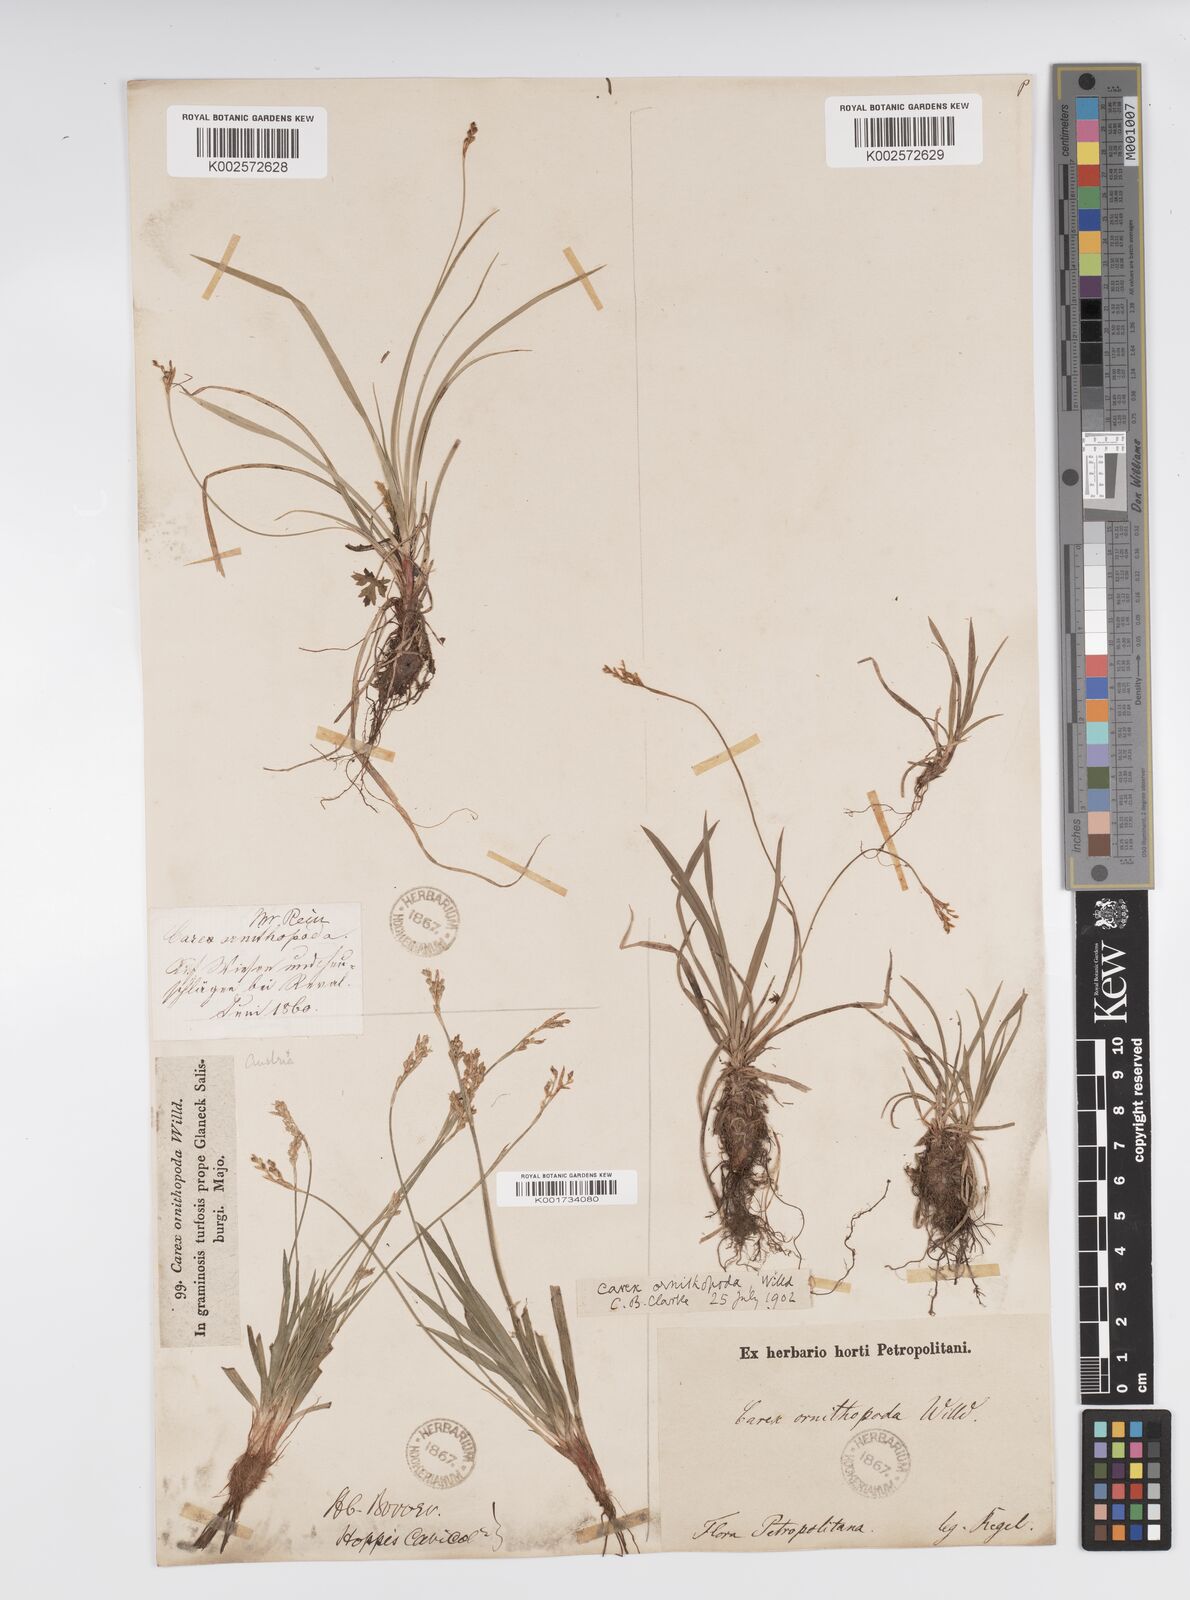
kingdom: Plantae
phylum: Tracheophyta
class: Liliopsida
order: Poales
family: Cyperaceae
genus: Carex
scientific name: Carex ornithopoda
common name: Bird's-foot sedge
